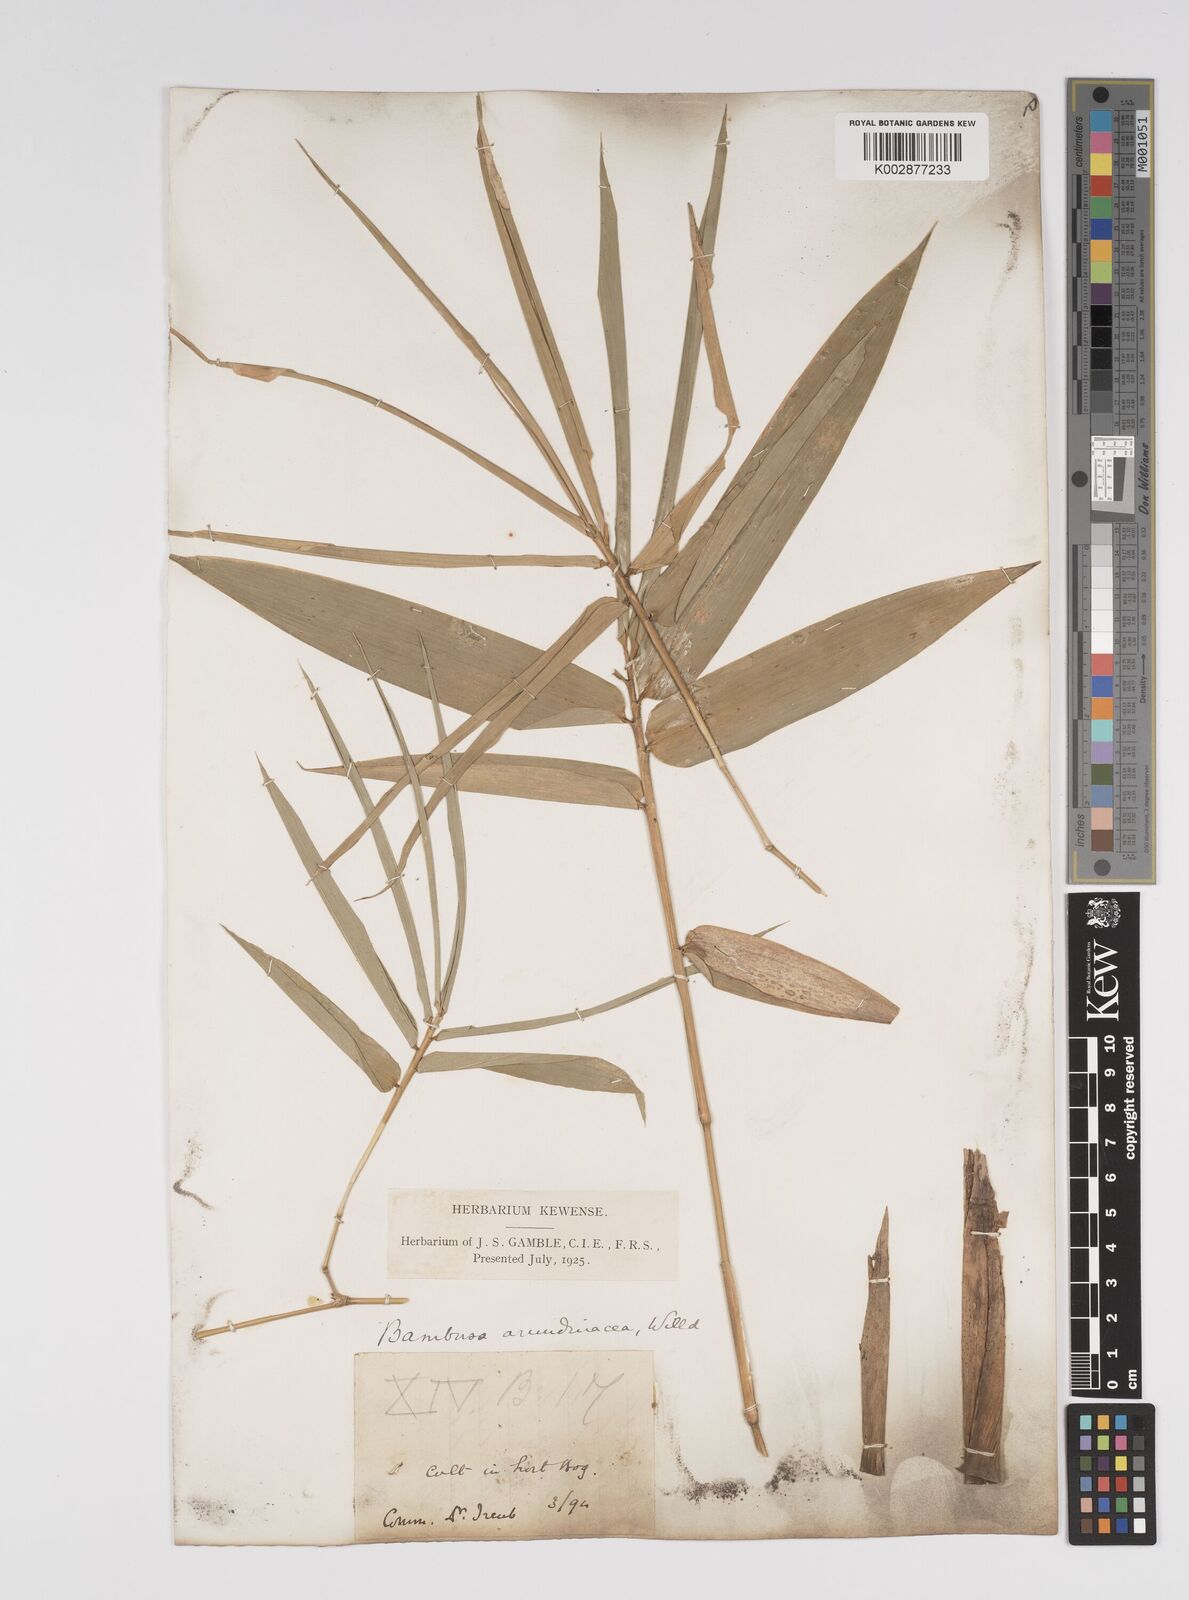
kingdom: Plantae
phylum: Tracheophyta
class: Liliopsida
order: Poales
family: Poaceae
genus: Bambusa
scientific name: Bambusa bambos
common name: Indian thorny bamboo
